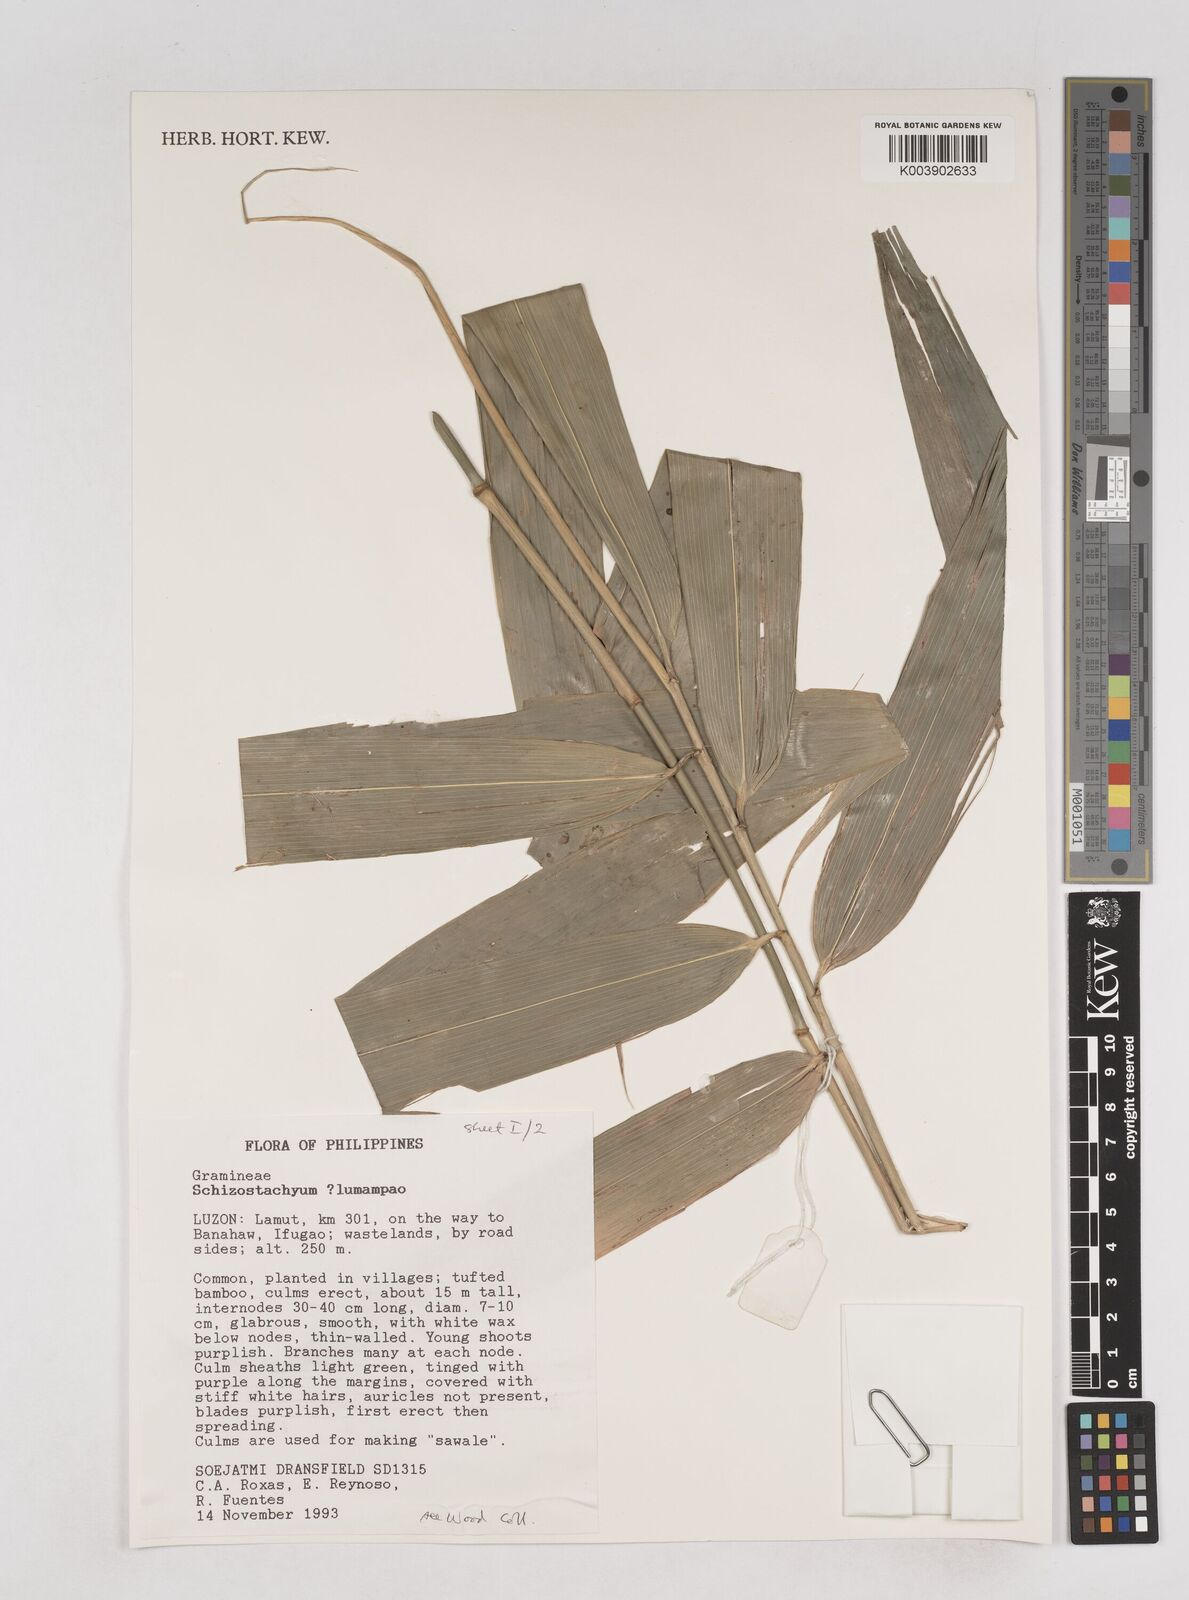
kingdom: Plantae
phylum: Tracheophyta
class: Liliopsida
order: Poales
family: Poaceae
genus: Schizostachyum
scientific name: Schizostachyum lumampao
